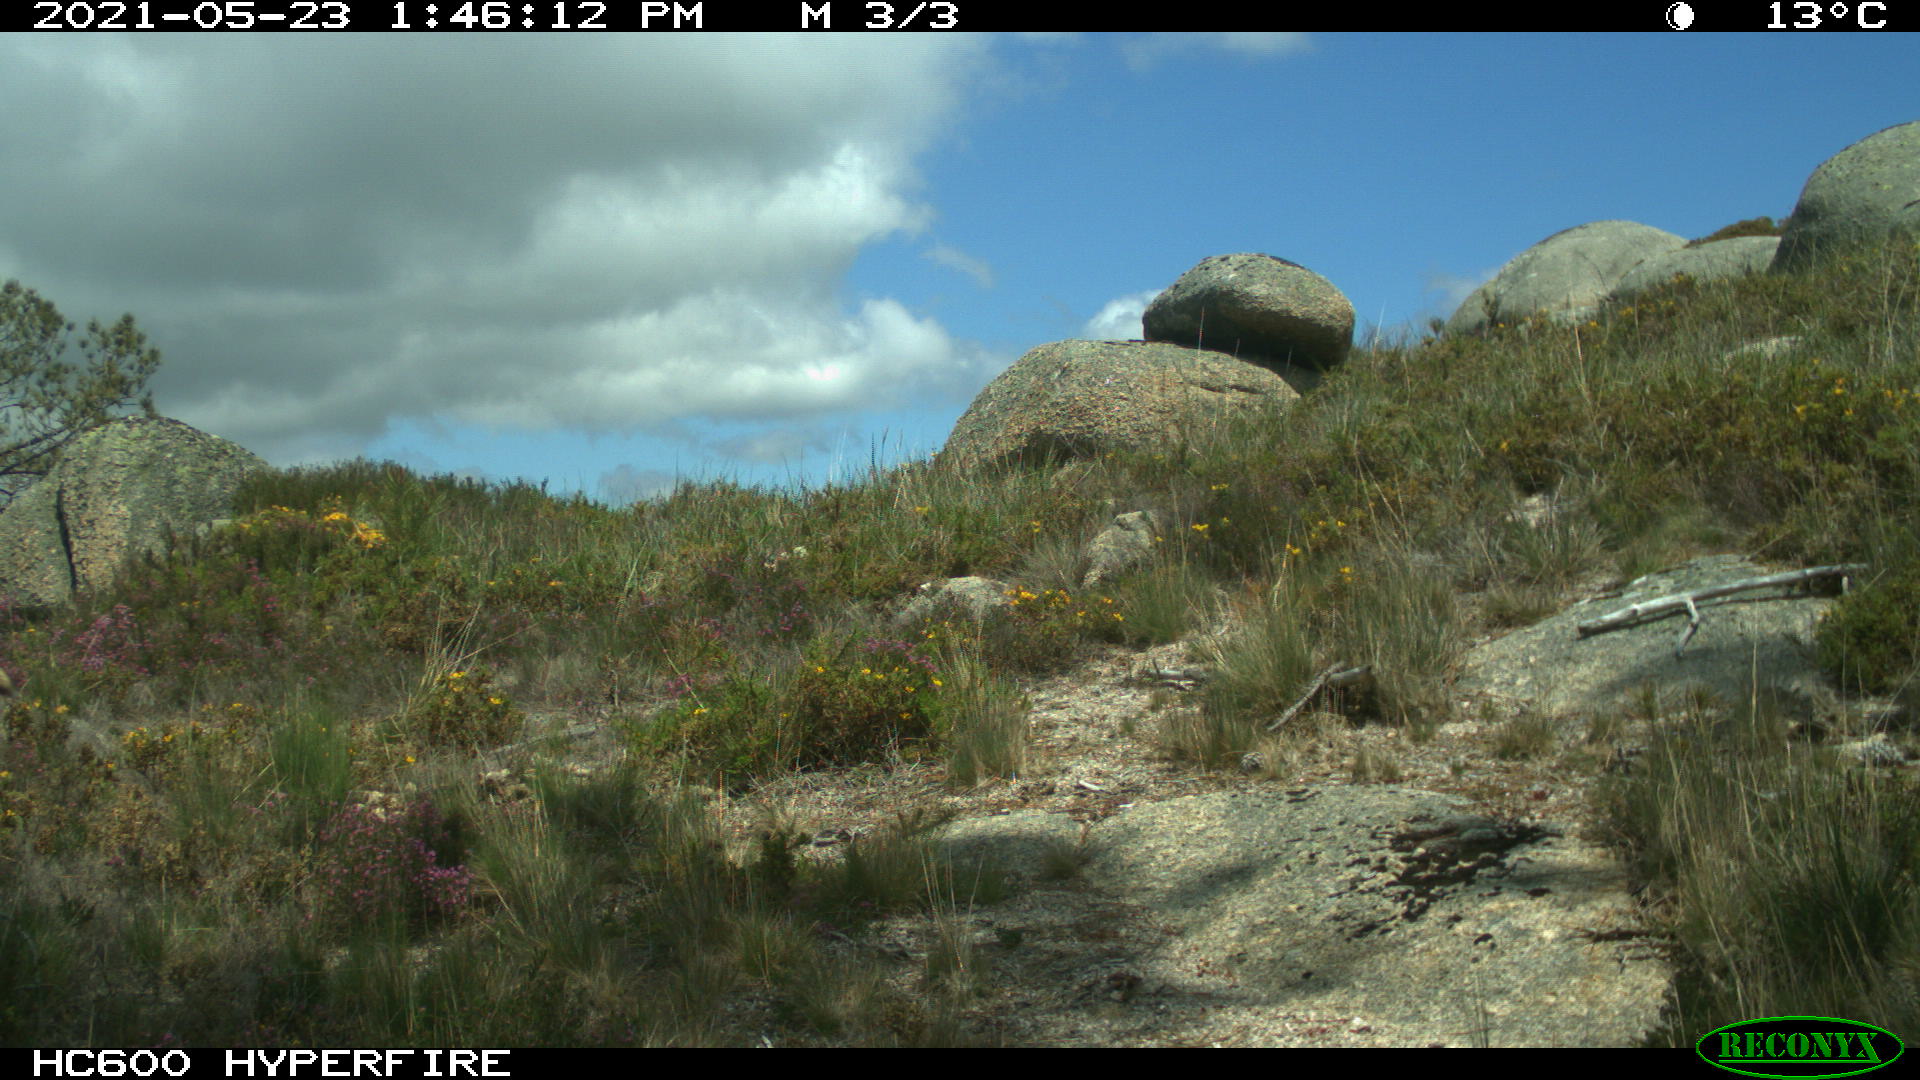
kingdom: Animalia
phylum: Chordata
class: Mammalia
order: Carnivora
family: Canidae
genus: Vulpes
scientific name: Vulpes vulpes
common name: Red fox
